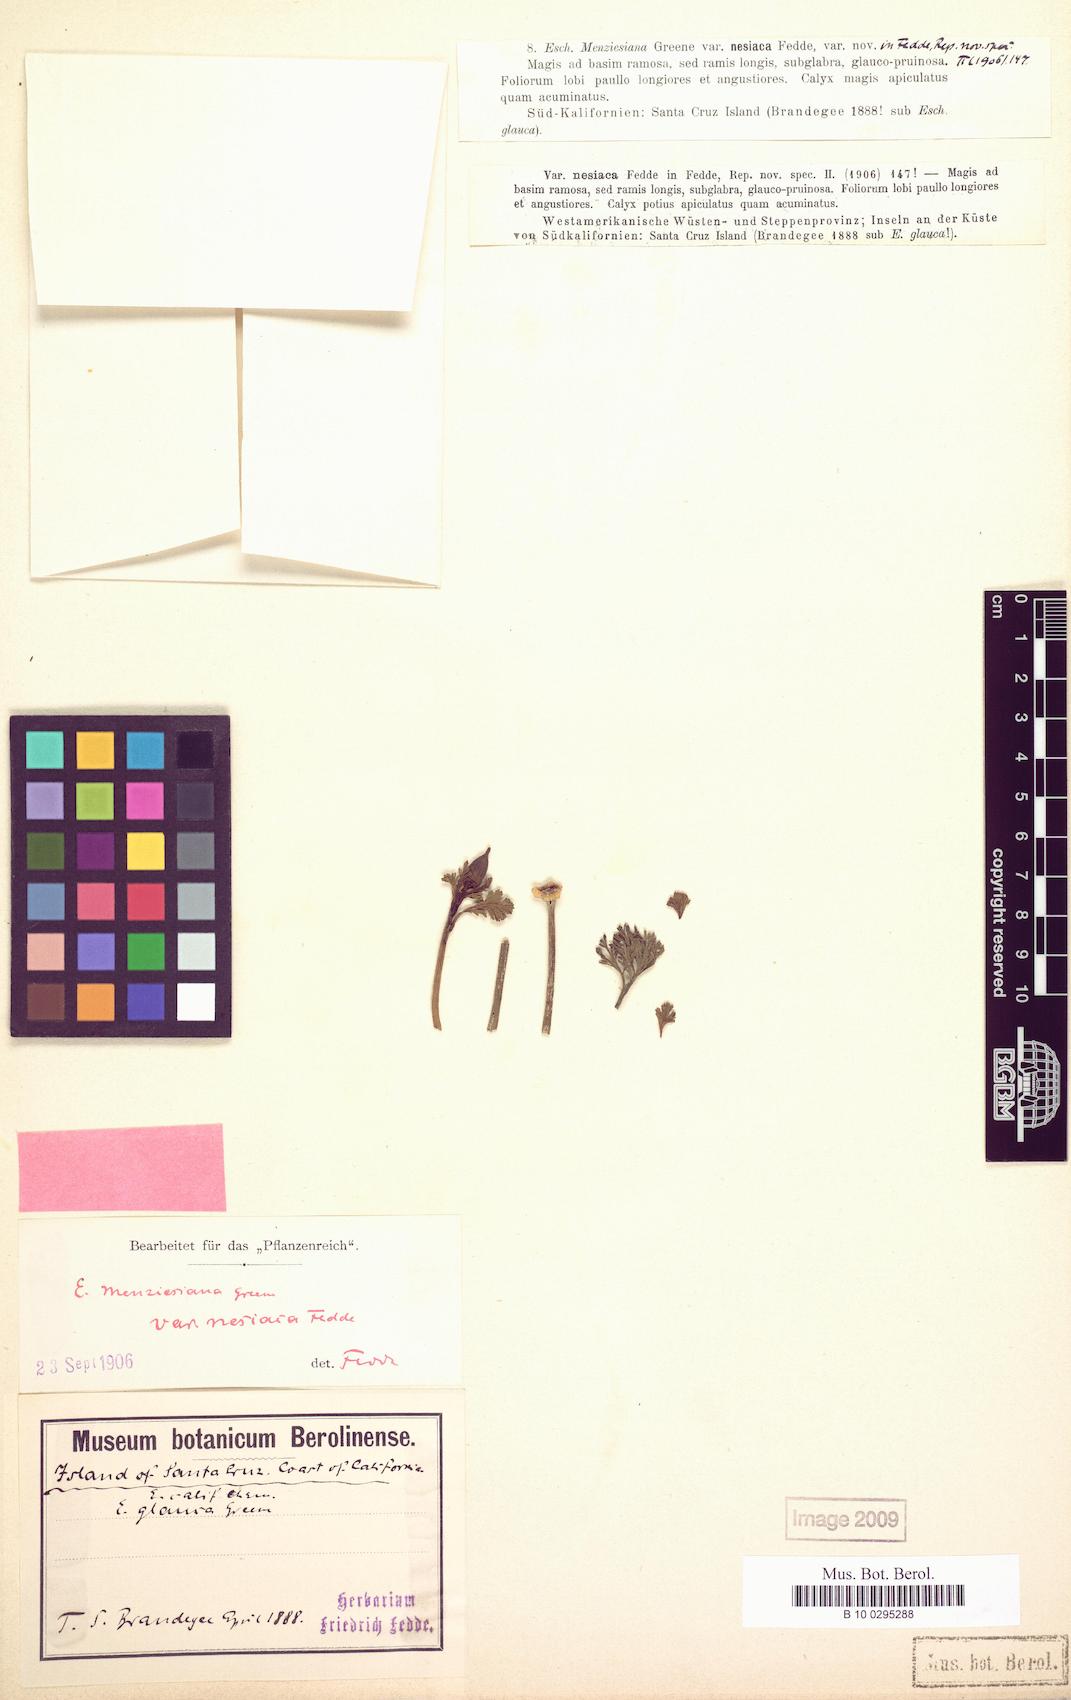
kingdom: Plantae
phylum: Tracheophyta
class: Magnoliopsida
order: Ranunculales
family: Papaveraceae
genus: Eschscholzia
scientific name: Eschscholzia californica
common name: California poppy
